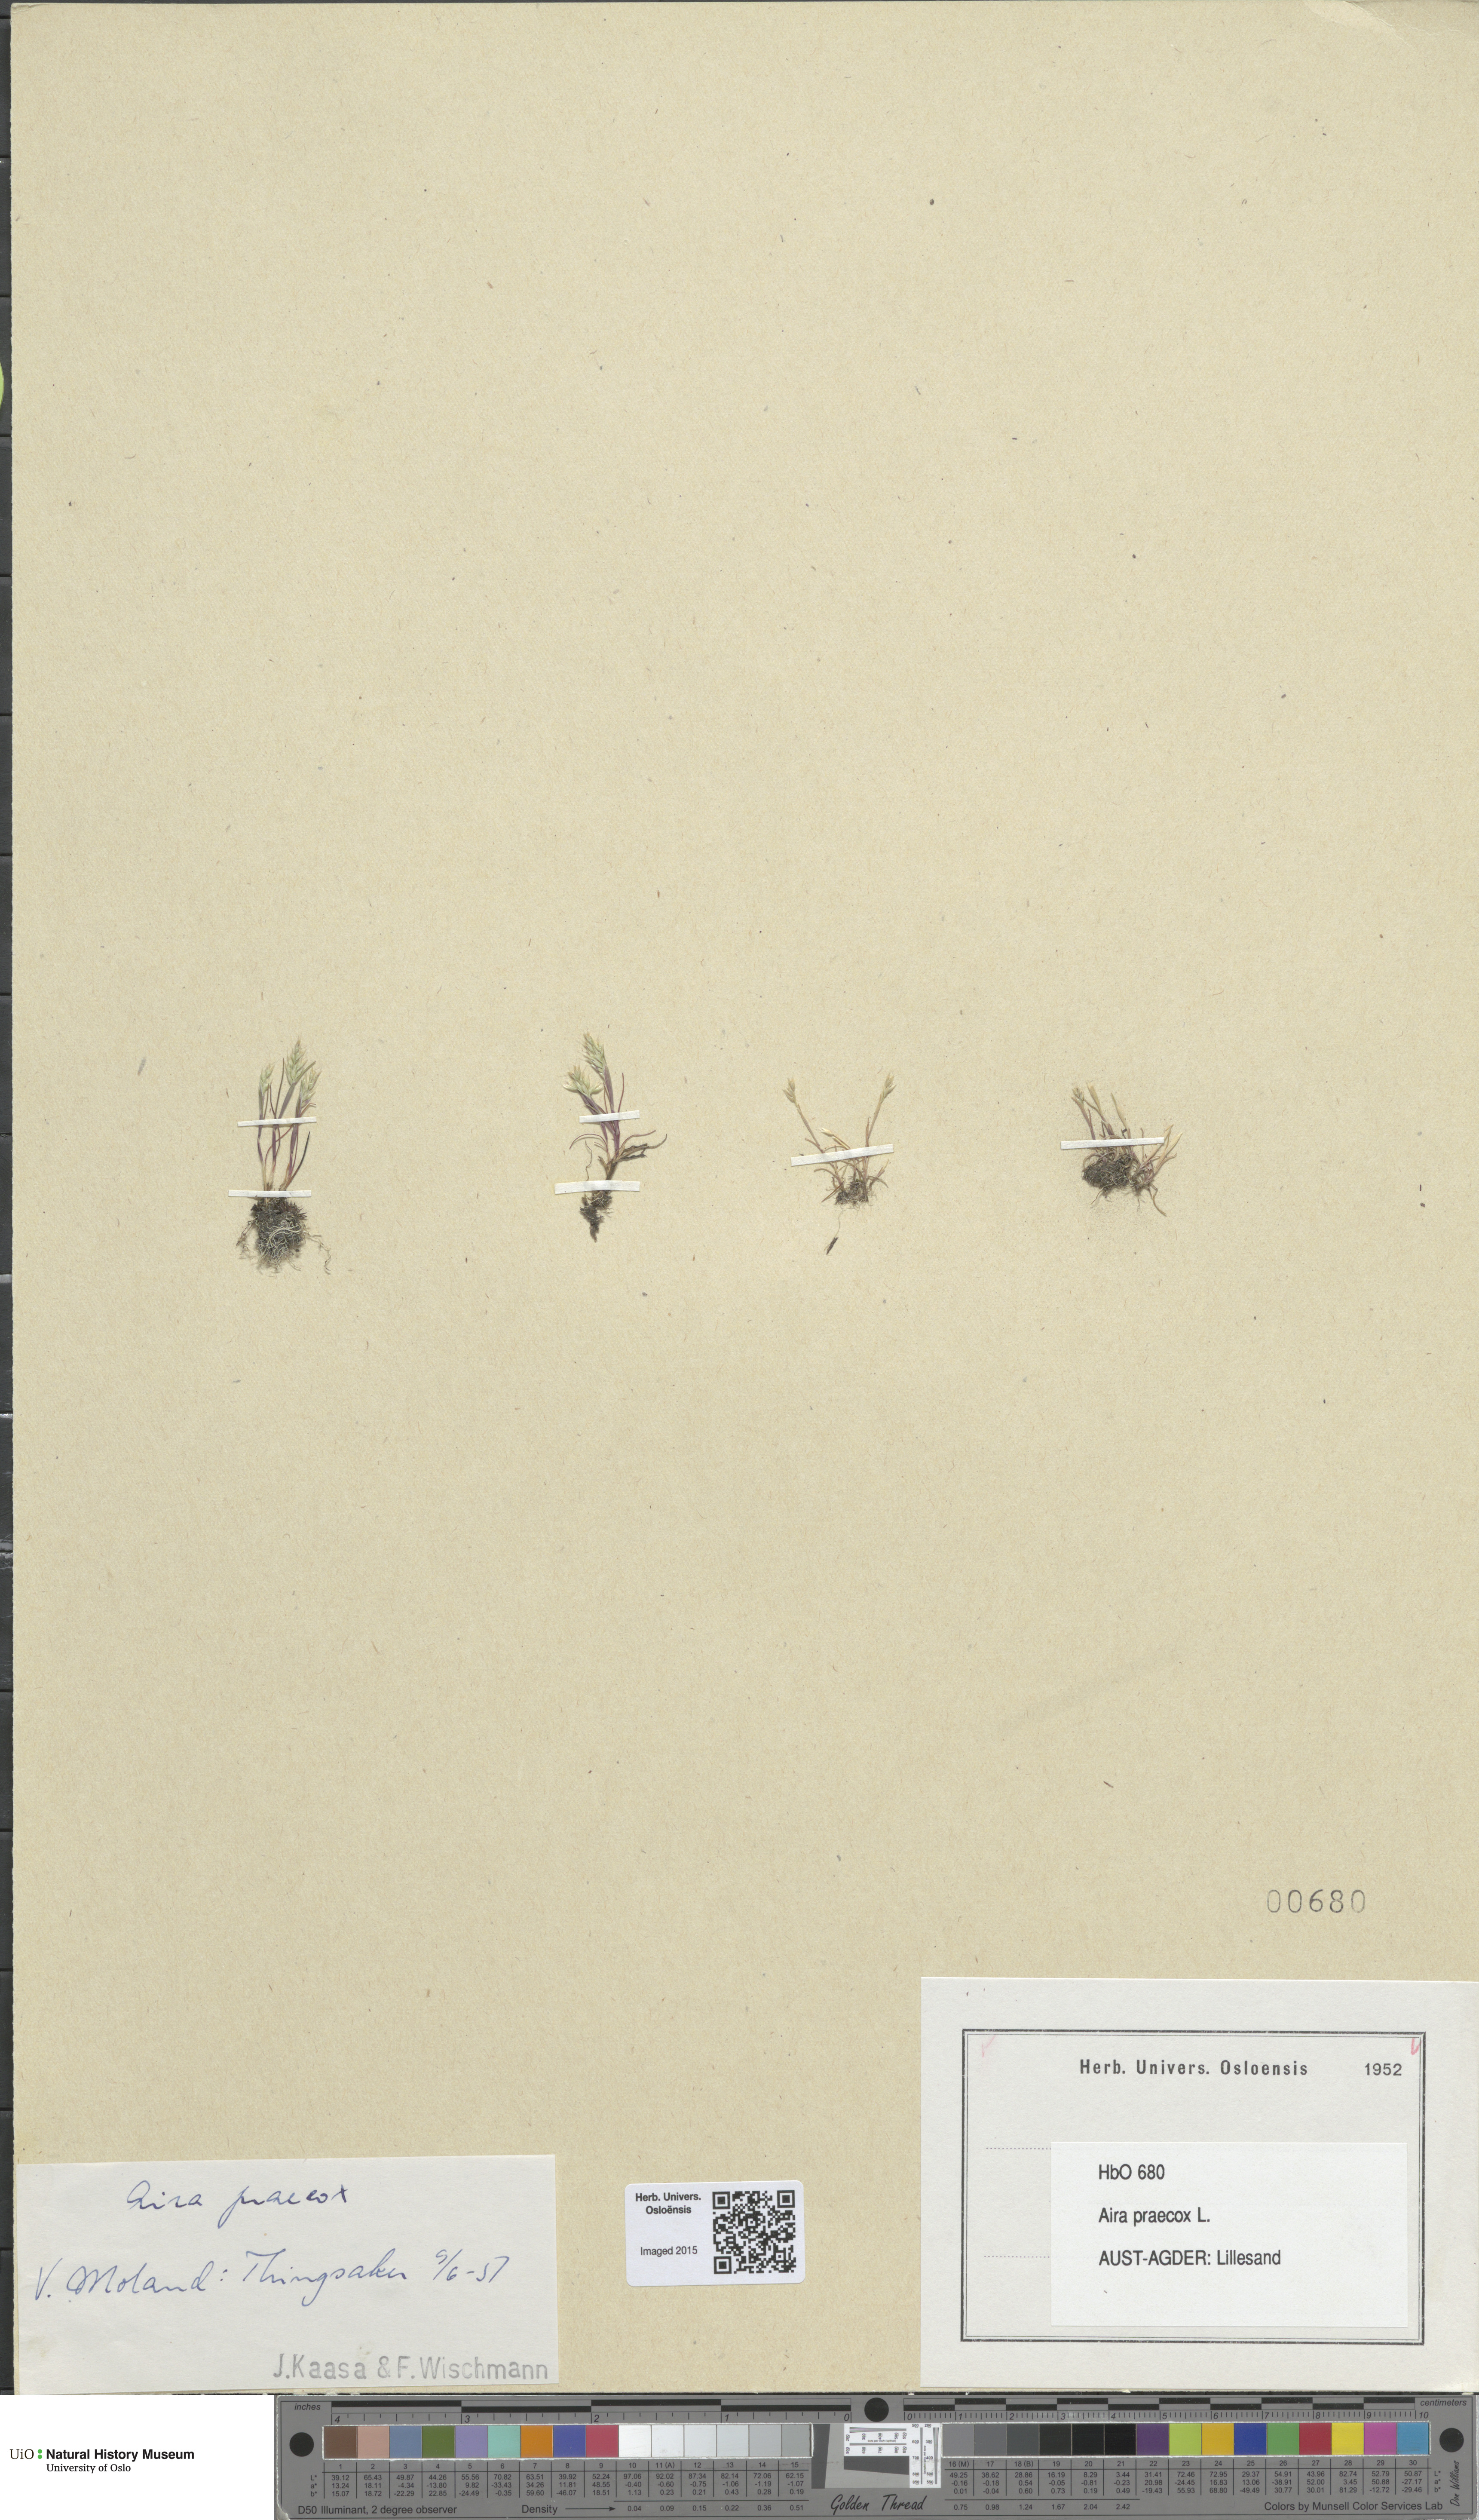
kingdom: Plantae
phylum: Tracheophyta
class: Liliopsida
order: Poales
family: Poaceae
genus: Aira
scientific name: Aira praecox
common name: Early hair-grass
